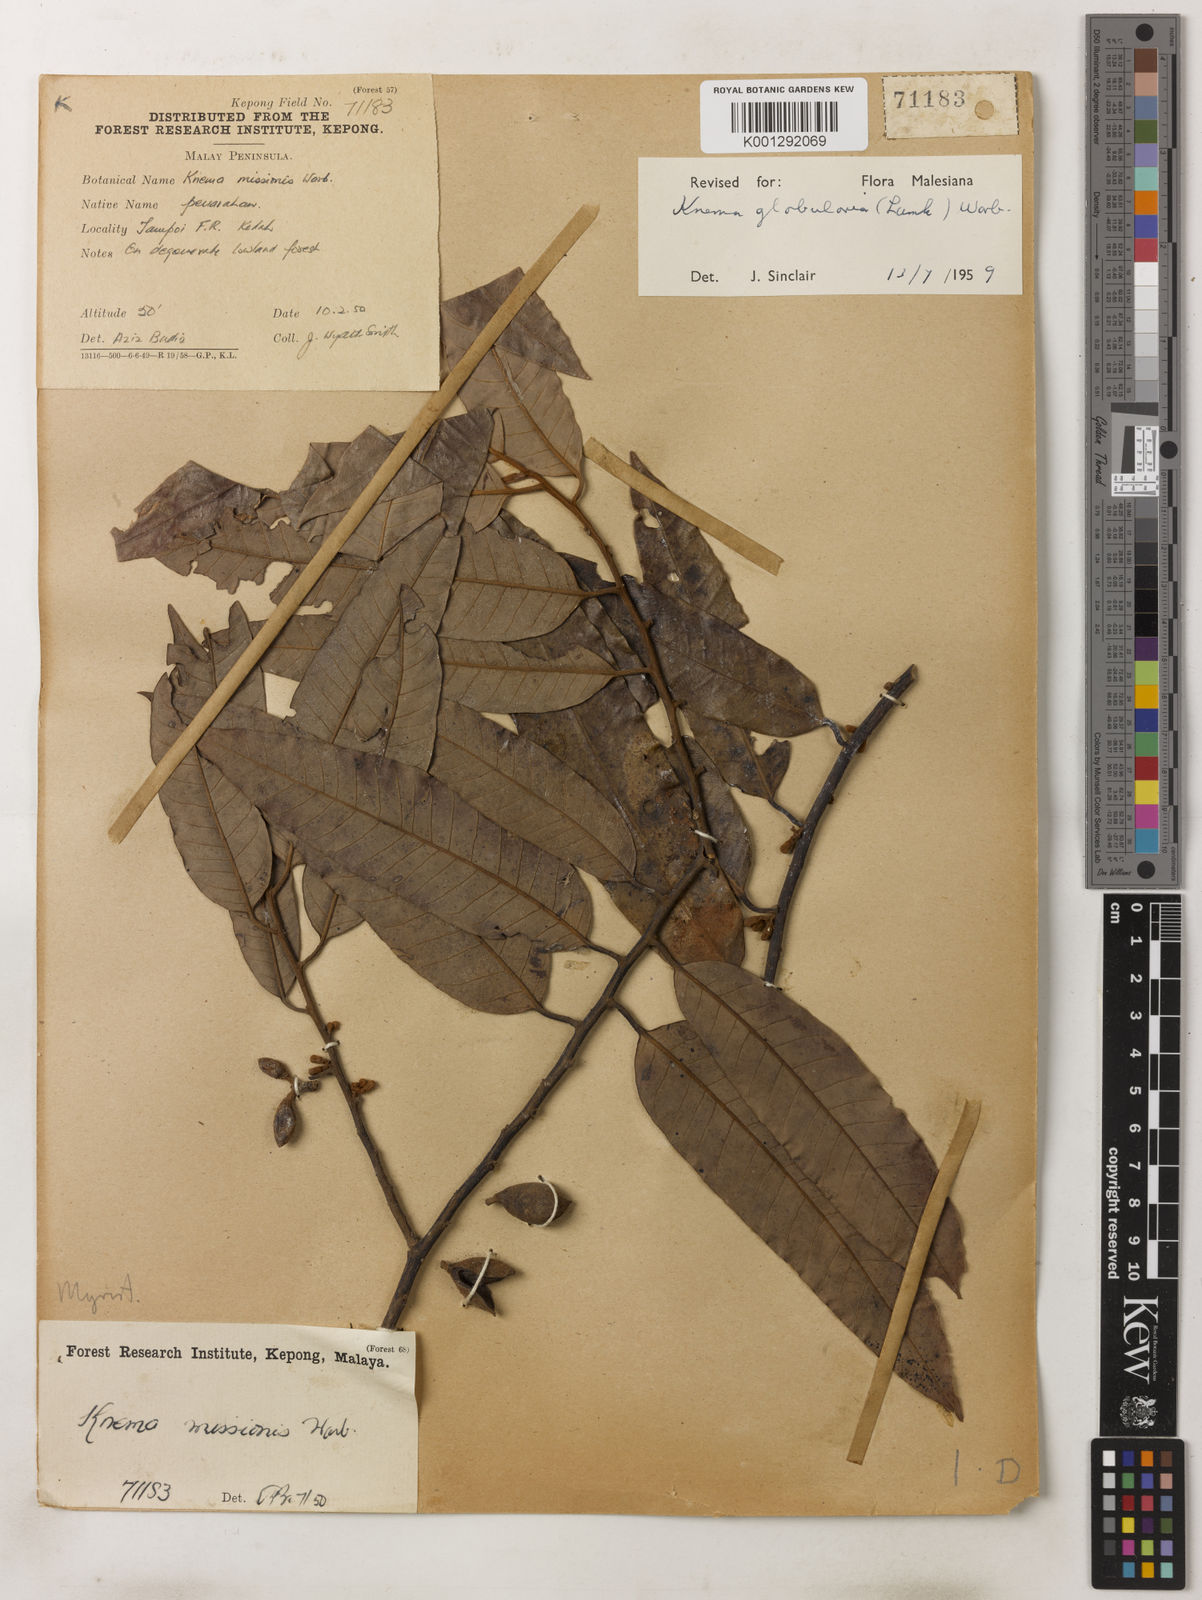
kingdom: Plantae
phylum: Tracheophyta
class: Magnoliopsida
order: Magnoliales
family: Myristicaceae
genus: Knema
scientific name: Knema globularia
